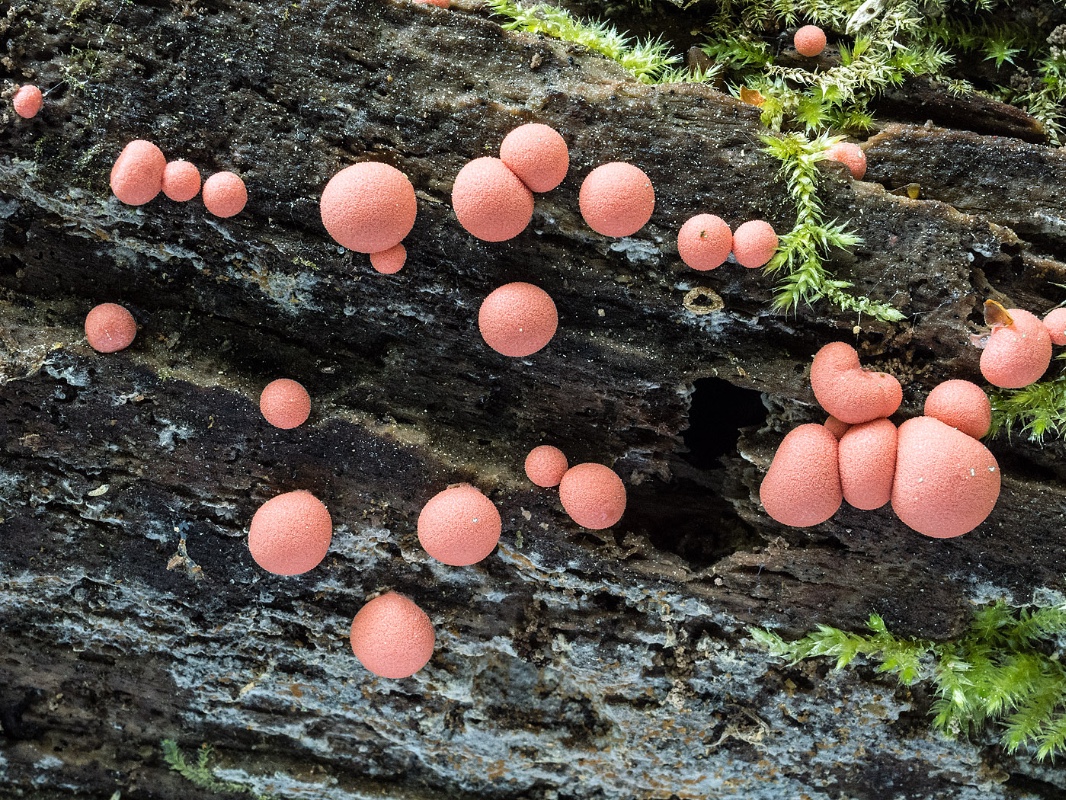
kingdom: Protozoa
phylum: Mycetozoa
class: Myxomycetes
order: Cribrariales
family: Tubiferaceae
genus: Lycogala
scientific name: Lycogala epidendrum
